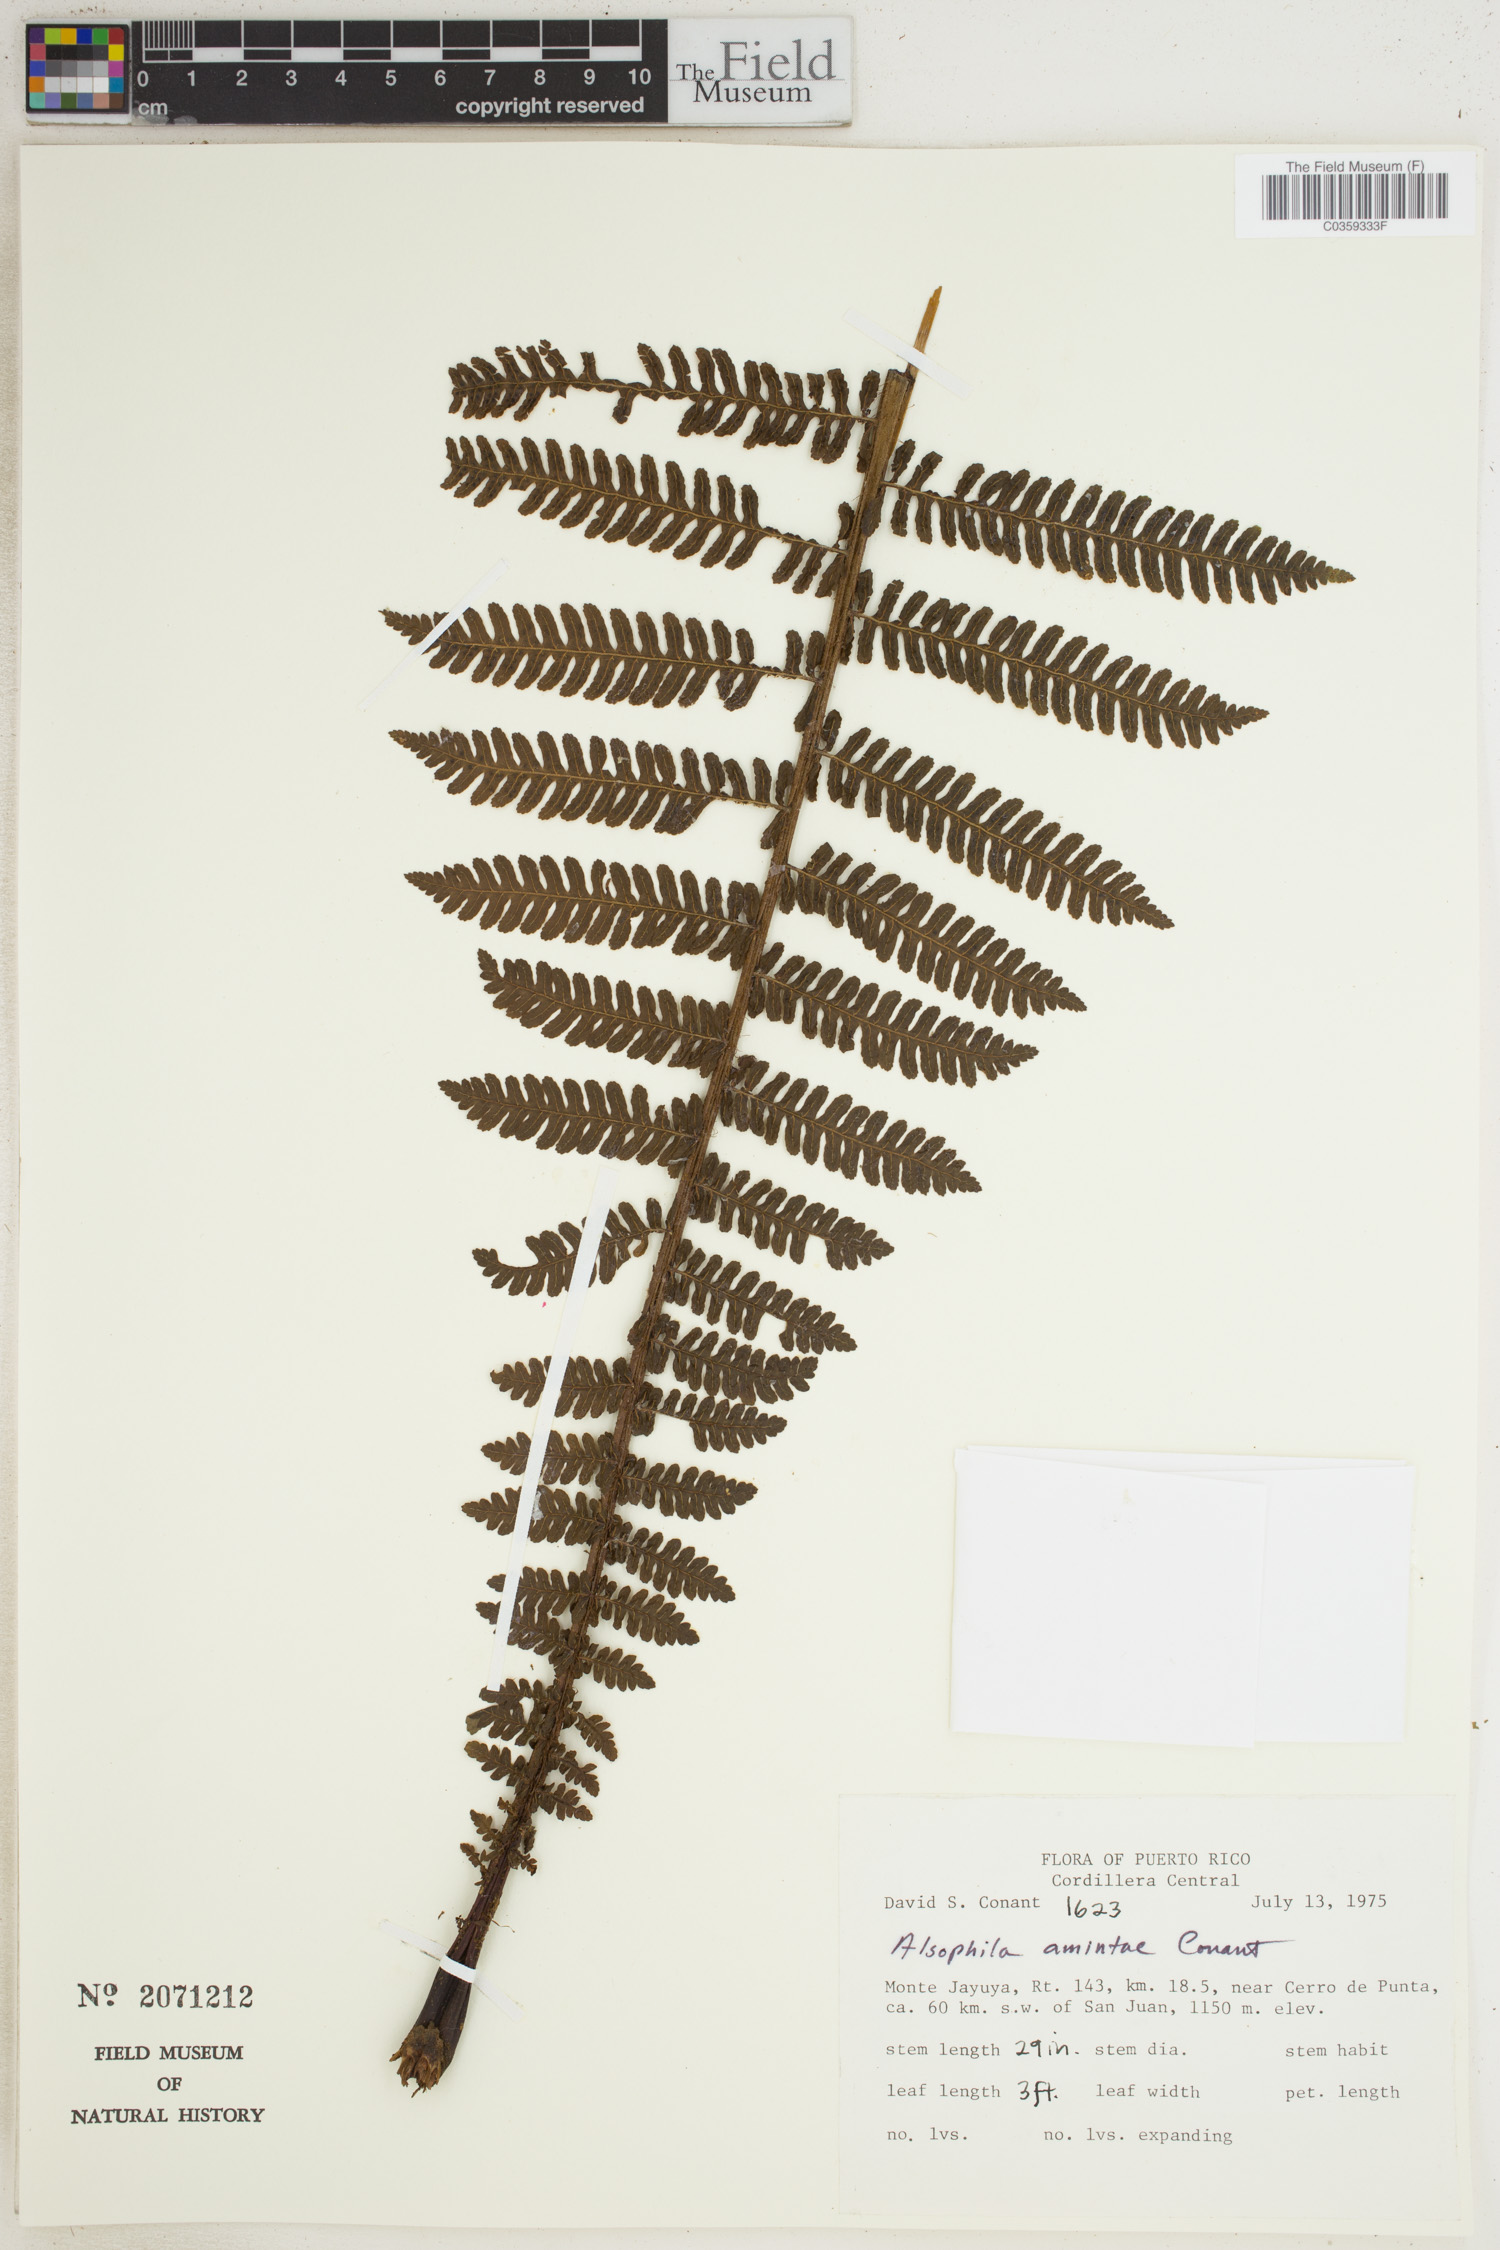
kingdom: Plantae
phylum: Tracheophyta
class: Polypodiopsida
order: Cyatheales
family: Cyatheaceae
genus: Alsophila
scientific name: Alsophila dryopteroides
